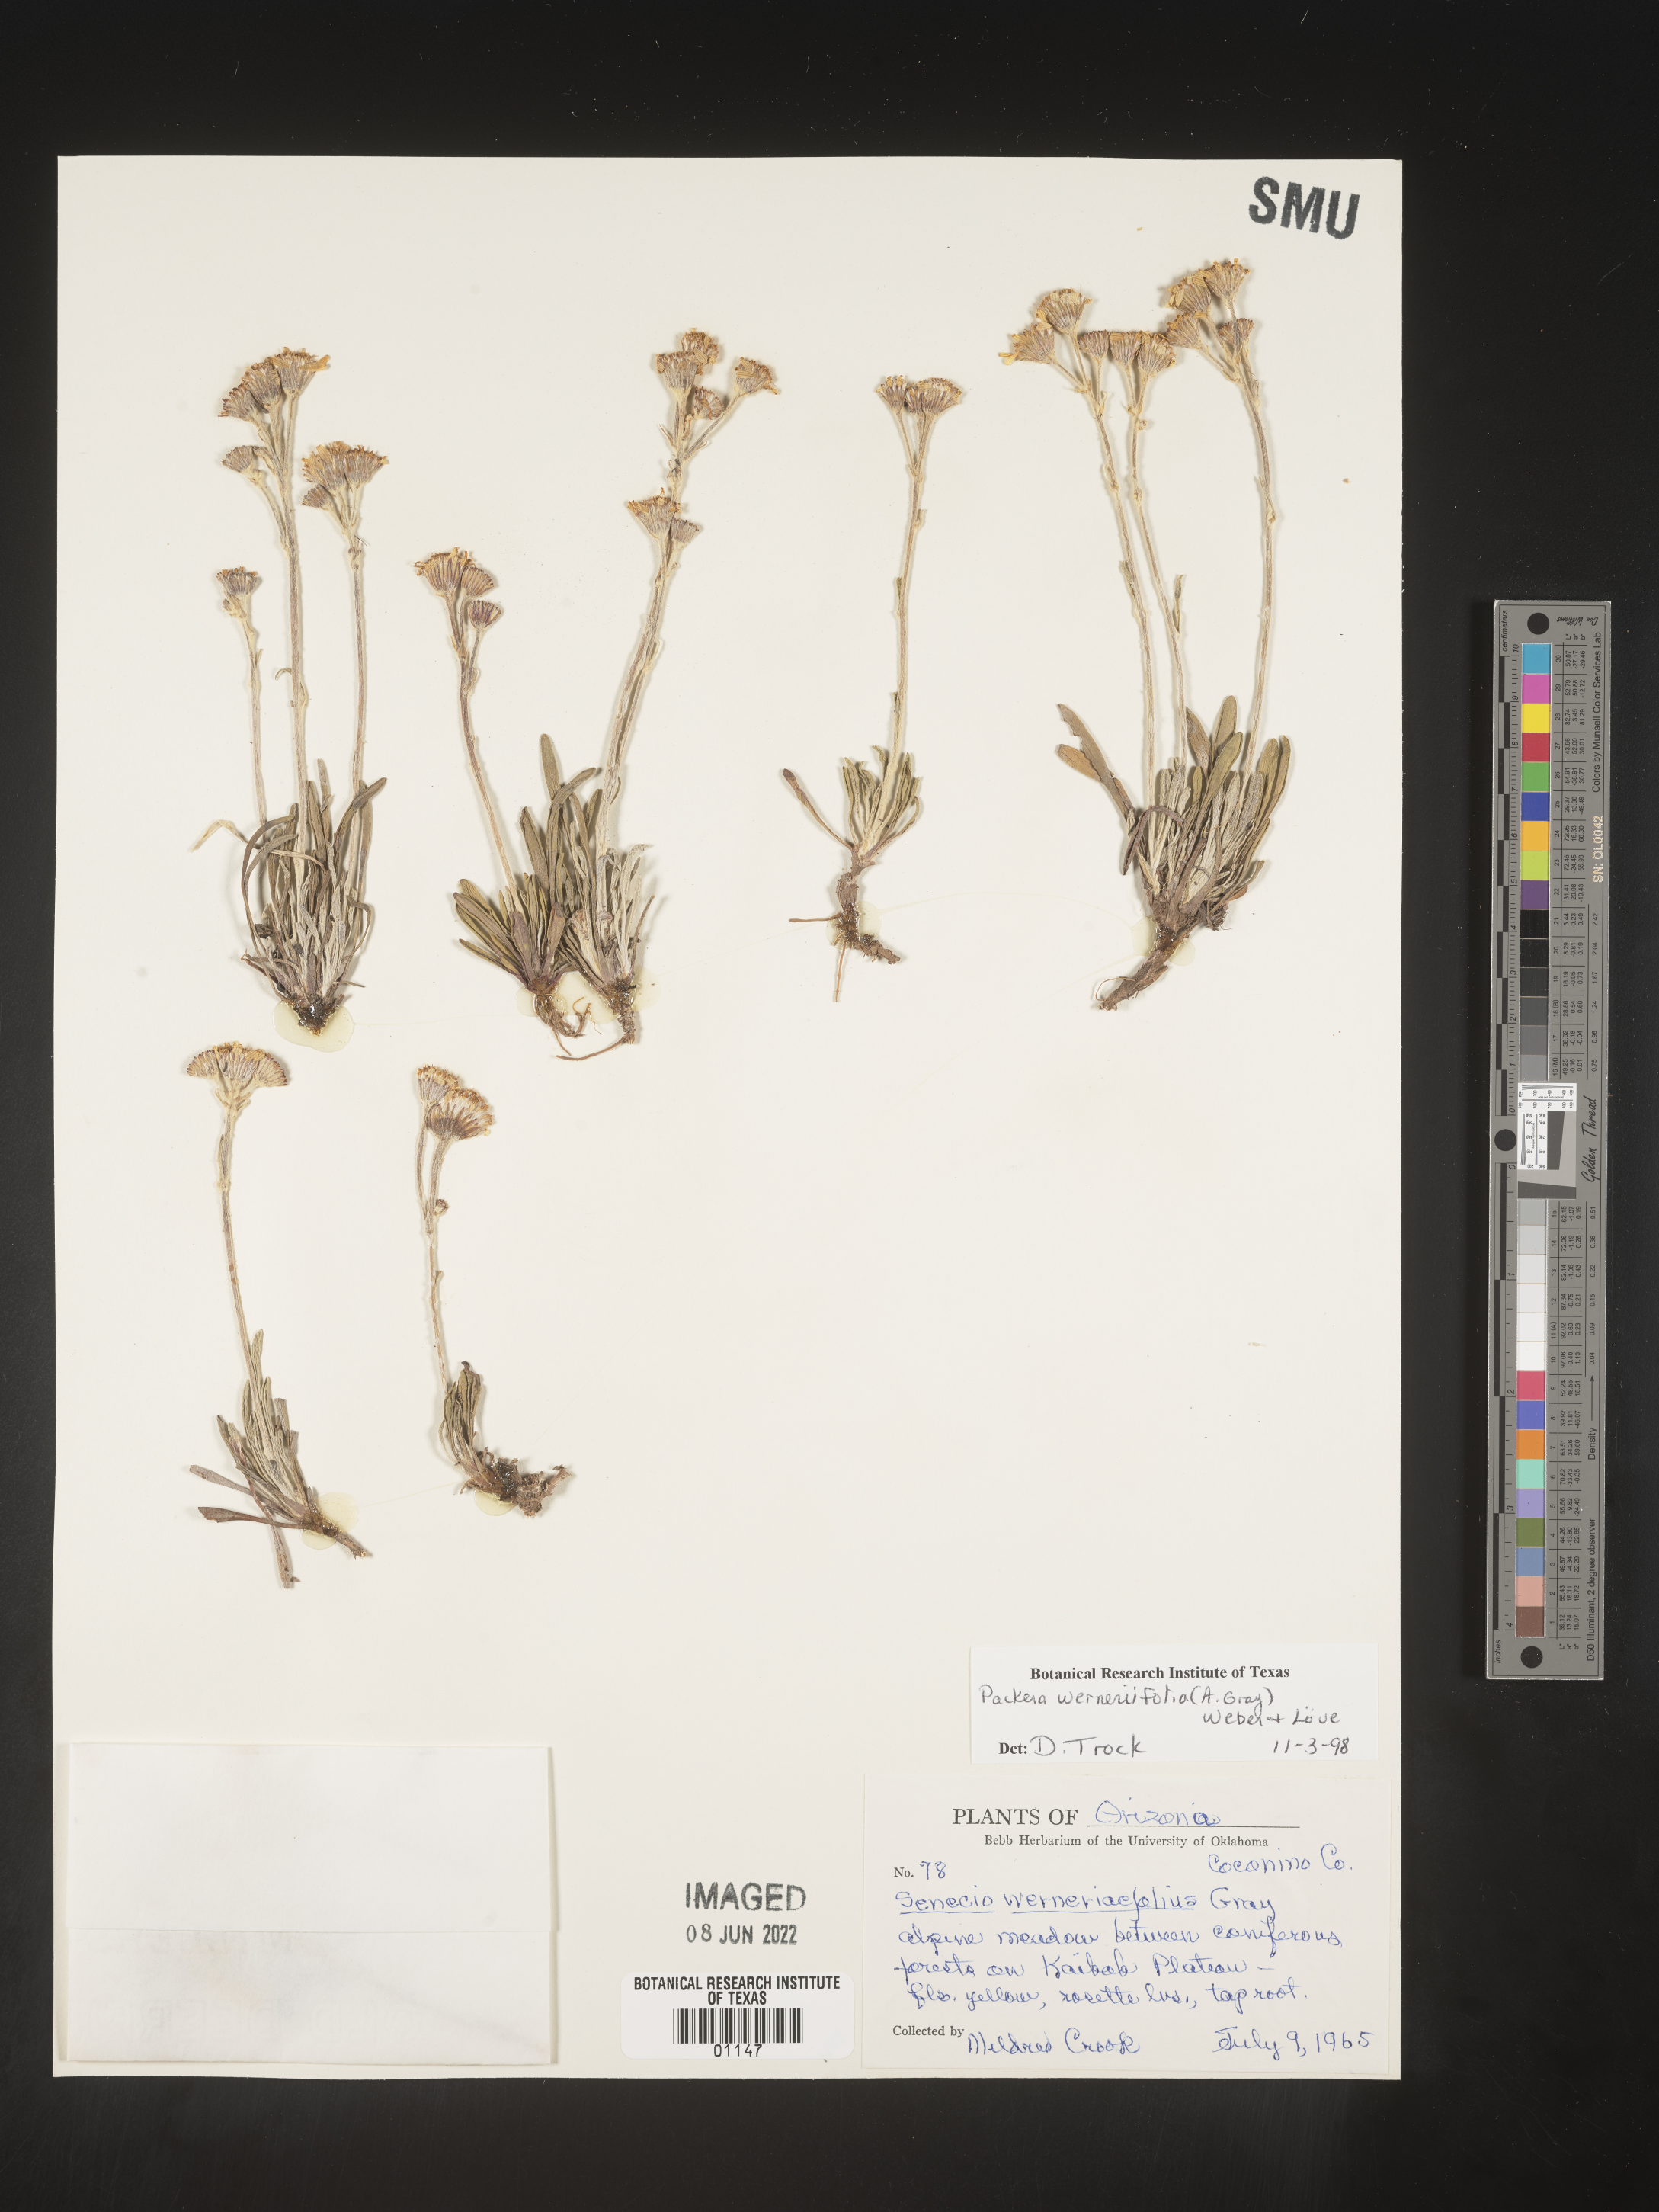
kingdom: Plantae
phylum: Tracheophyta
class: Magnoliopsida
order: Asterales
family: Asteraceae
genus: Packera
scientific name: Packera werneriifolia
